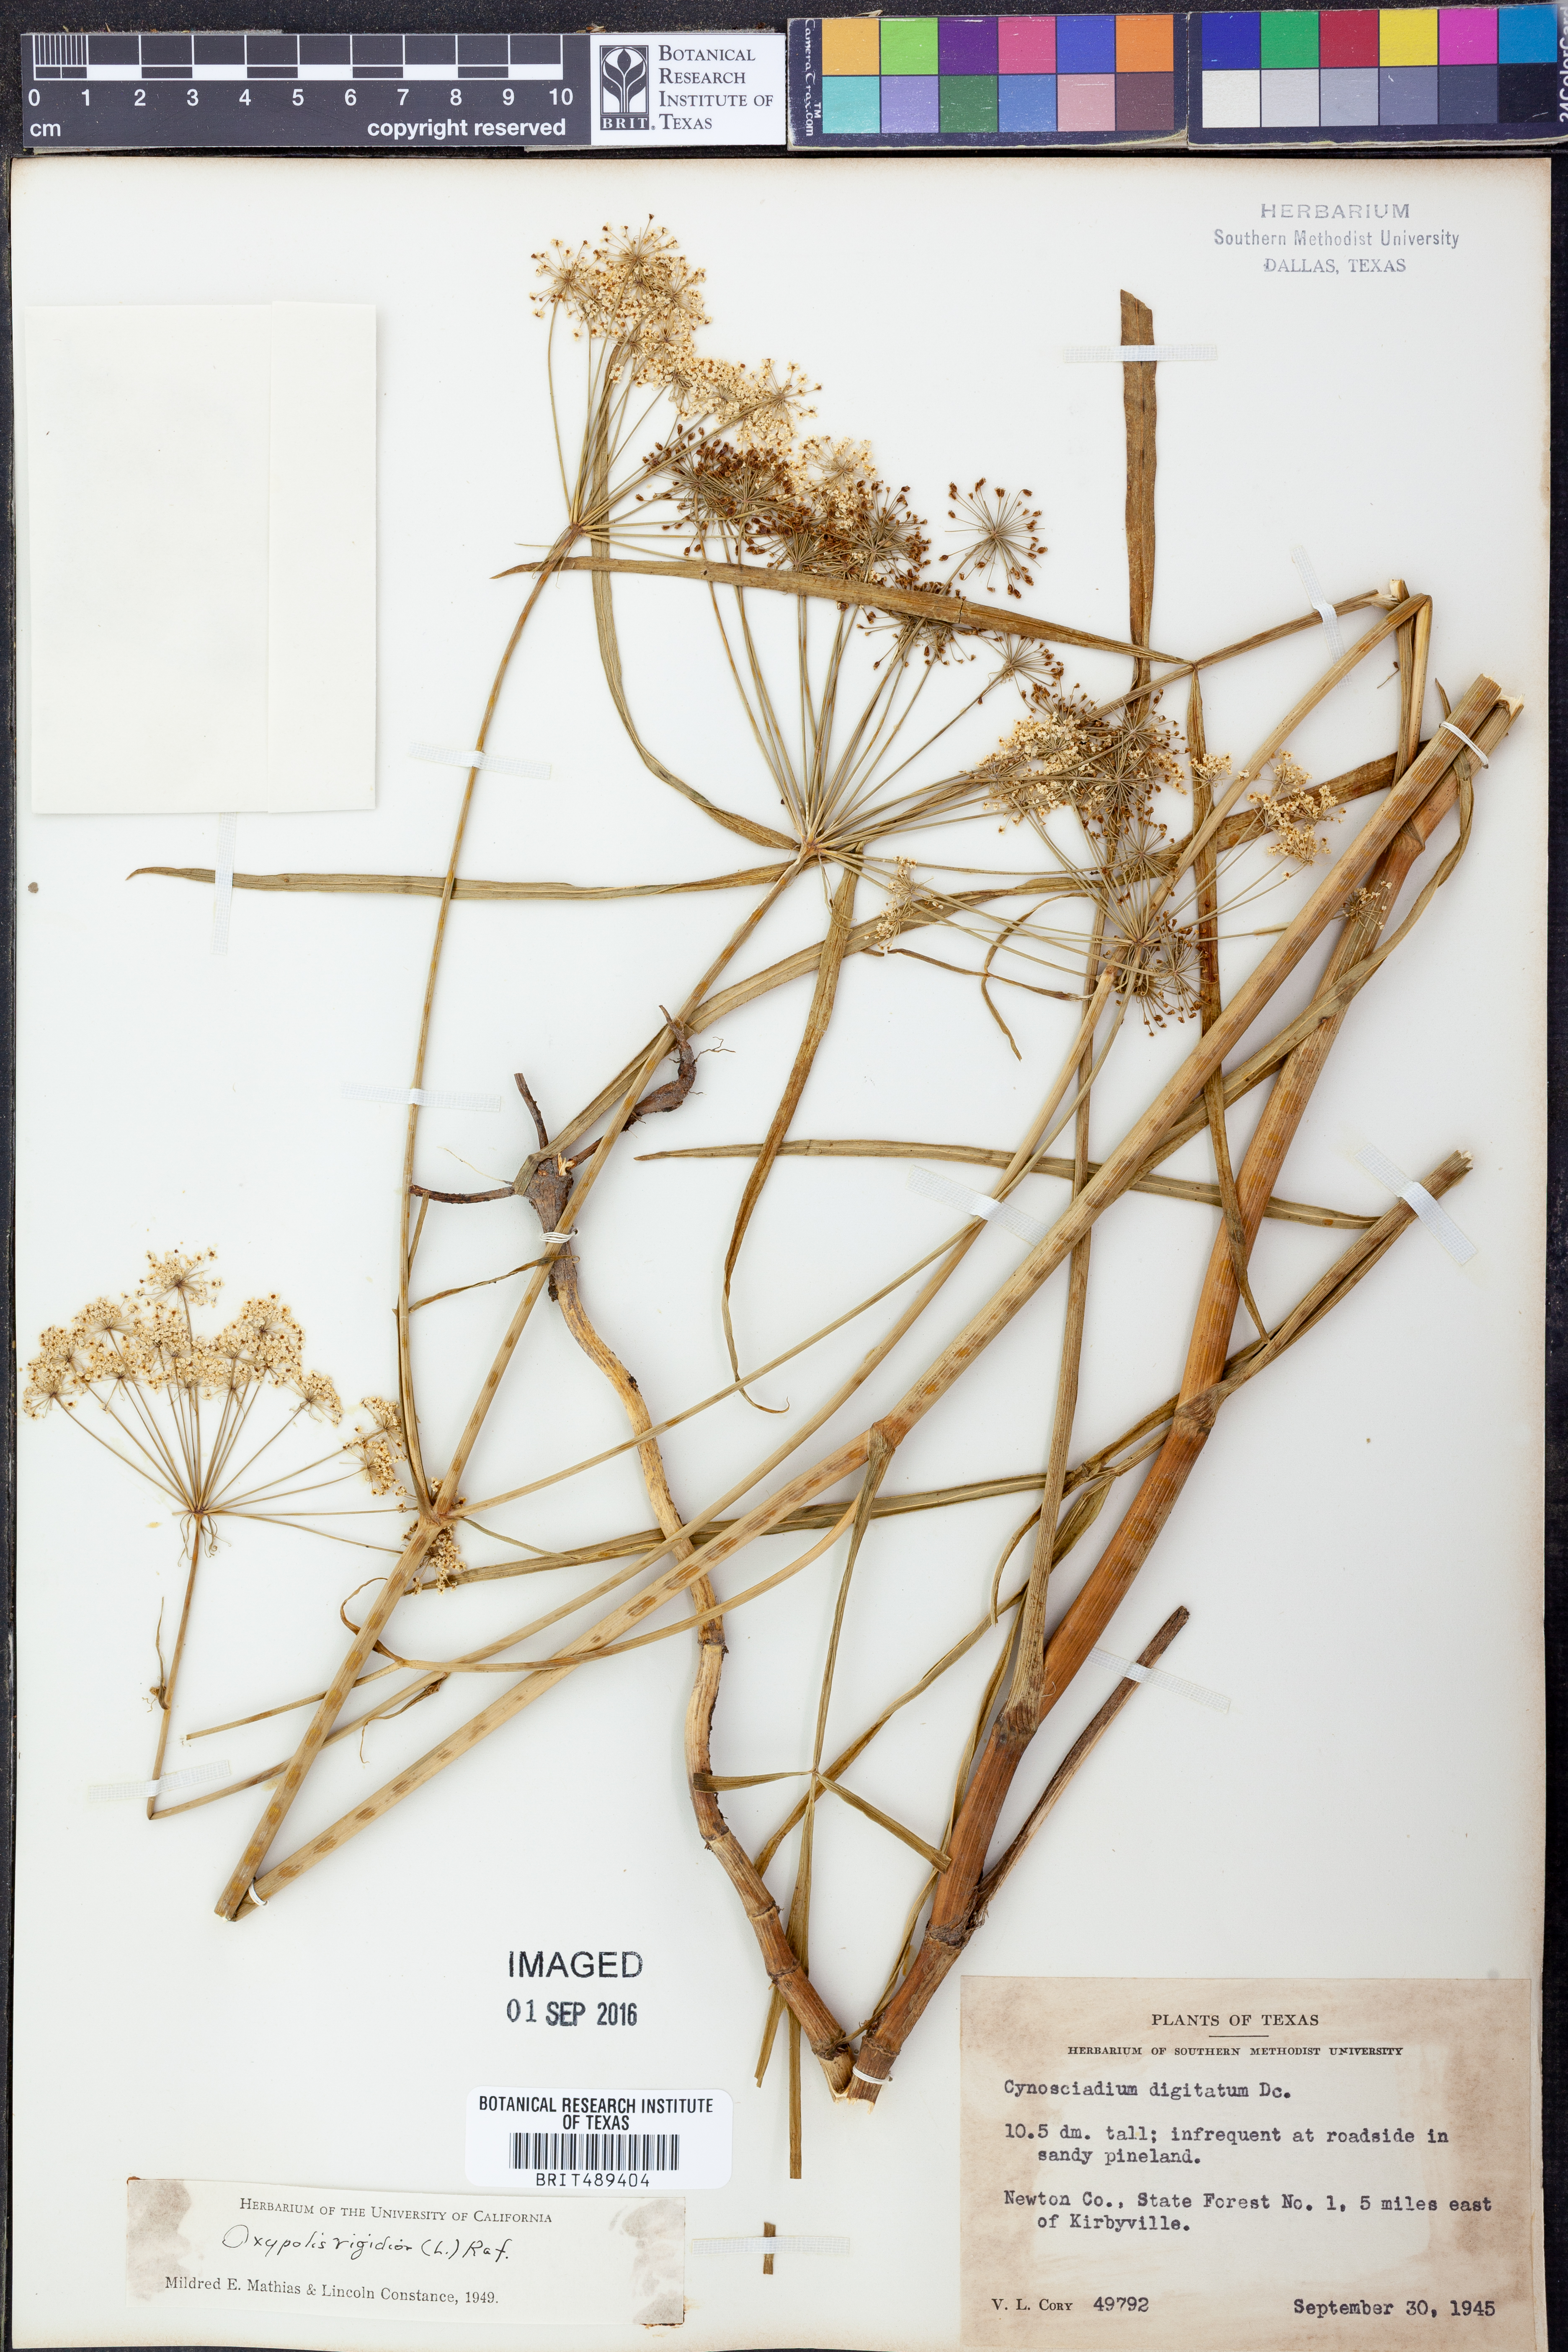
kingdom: Plantae
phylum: Tracheophyta
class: Magnoliopsida
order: Apiales
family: Apiaceae
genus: Oxypolis
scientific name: Oxypolis rigidior
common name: Cowbane
